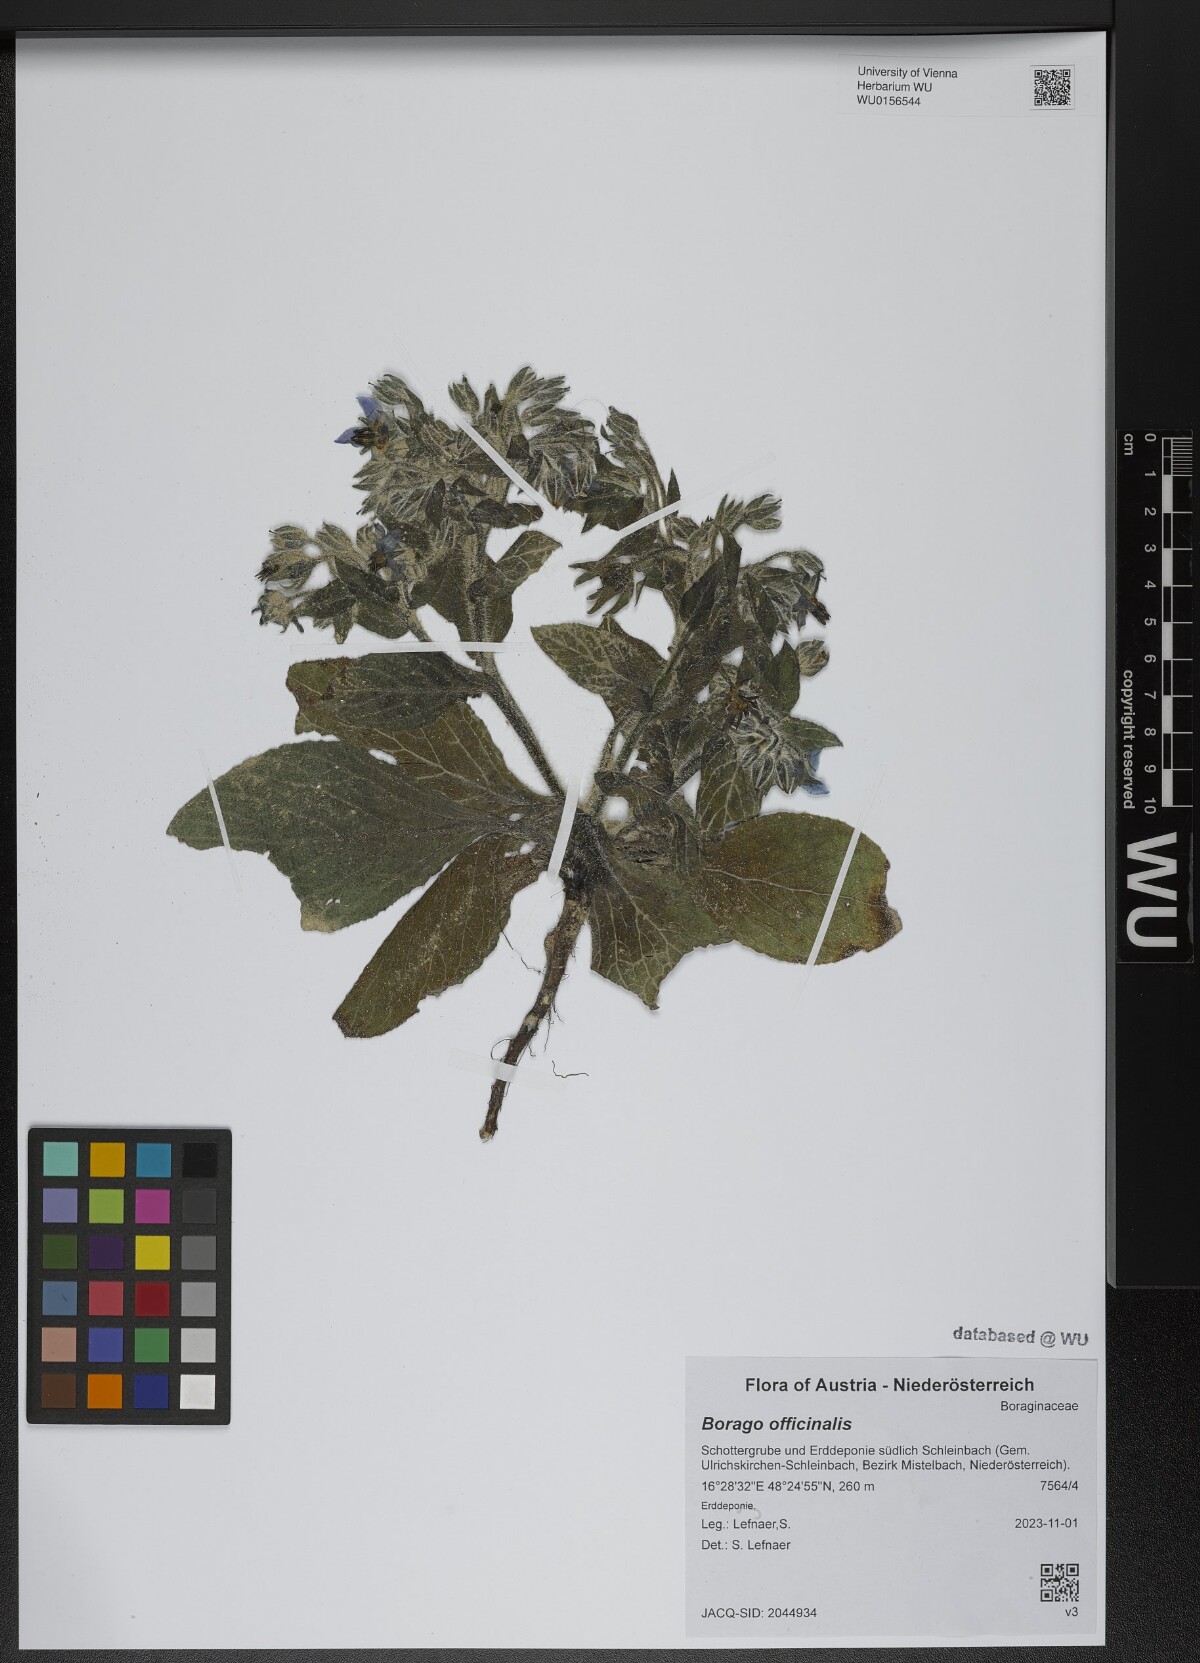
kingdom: Plantae
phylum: Tracheophyta
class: Magnoliopsida
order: Boraginales
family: Boraginaceae
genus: Borago
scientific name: Borago officinalis
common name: Borage
